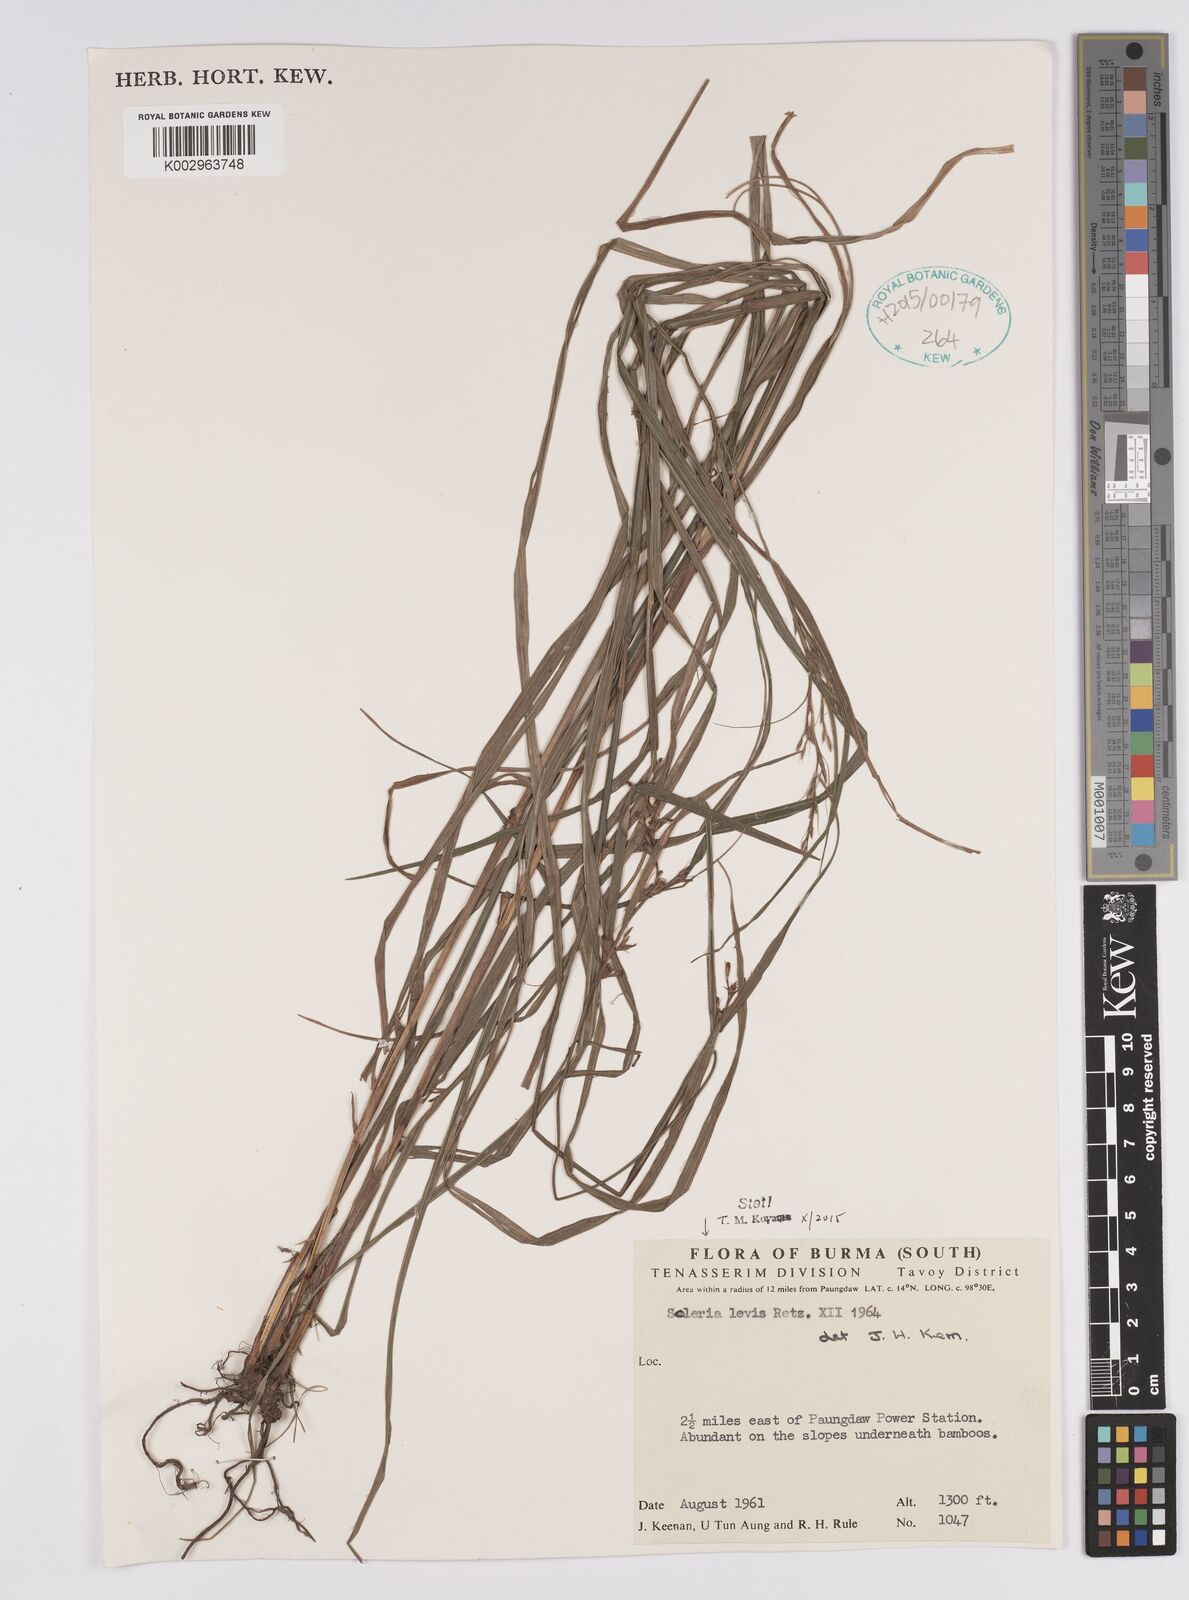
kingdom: Plantae
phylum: Tracheophyta
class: Liliopsida
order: Poales
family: Cyperaceae
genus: Scleria
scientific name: Scleria levis
